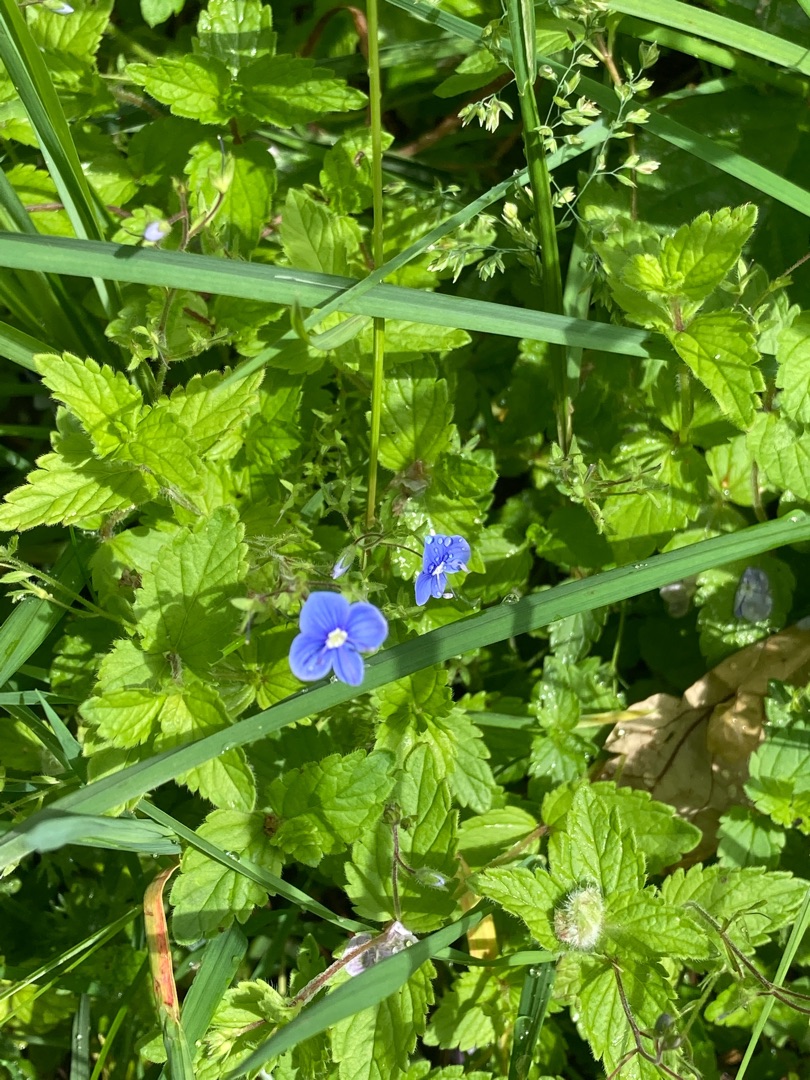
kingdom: Plantae
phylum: Tracheophyta
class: Magnoliopsida
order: Lamiales
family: Plantaginaceae
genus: Veronica
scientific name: Veronica chamaedrys
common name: Tveskægget ærenpris
